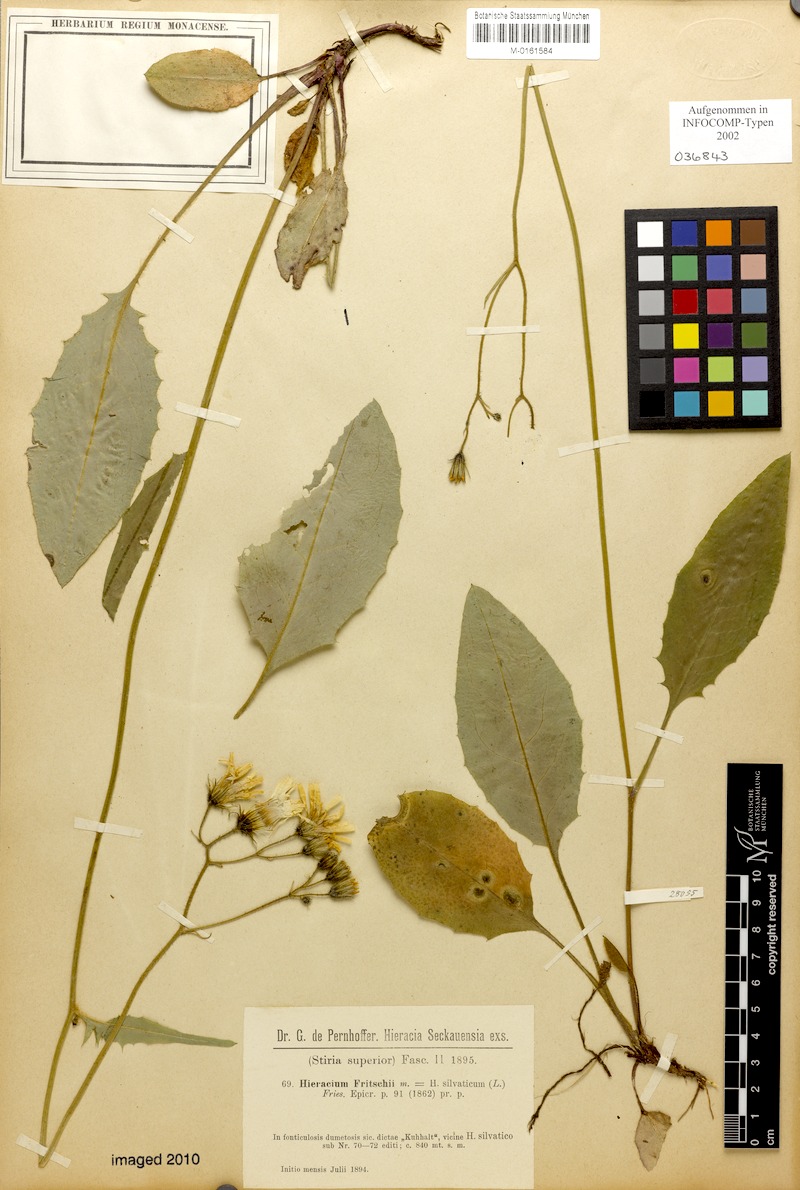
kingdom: Plantae
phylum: Tracheophyta
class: Magnoliopsida
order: Asterales
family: Asteraceae
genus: Hieracium
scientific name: Hieracium murorum
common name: Wall hawkweed
